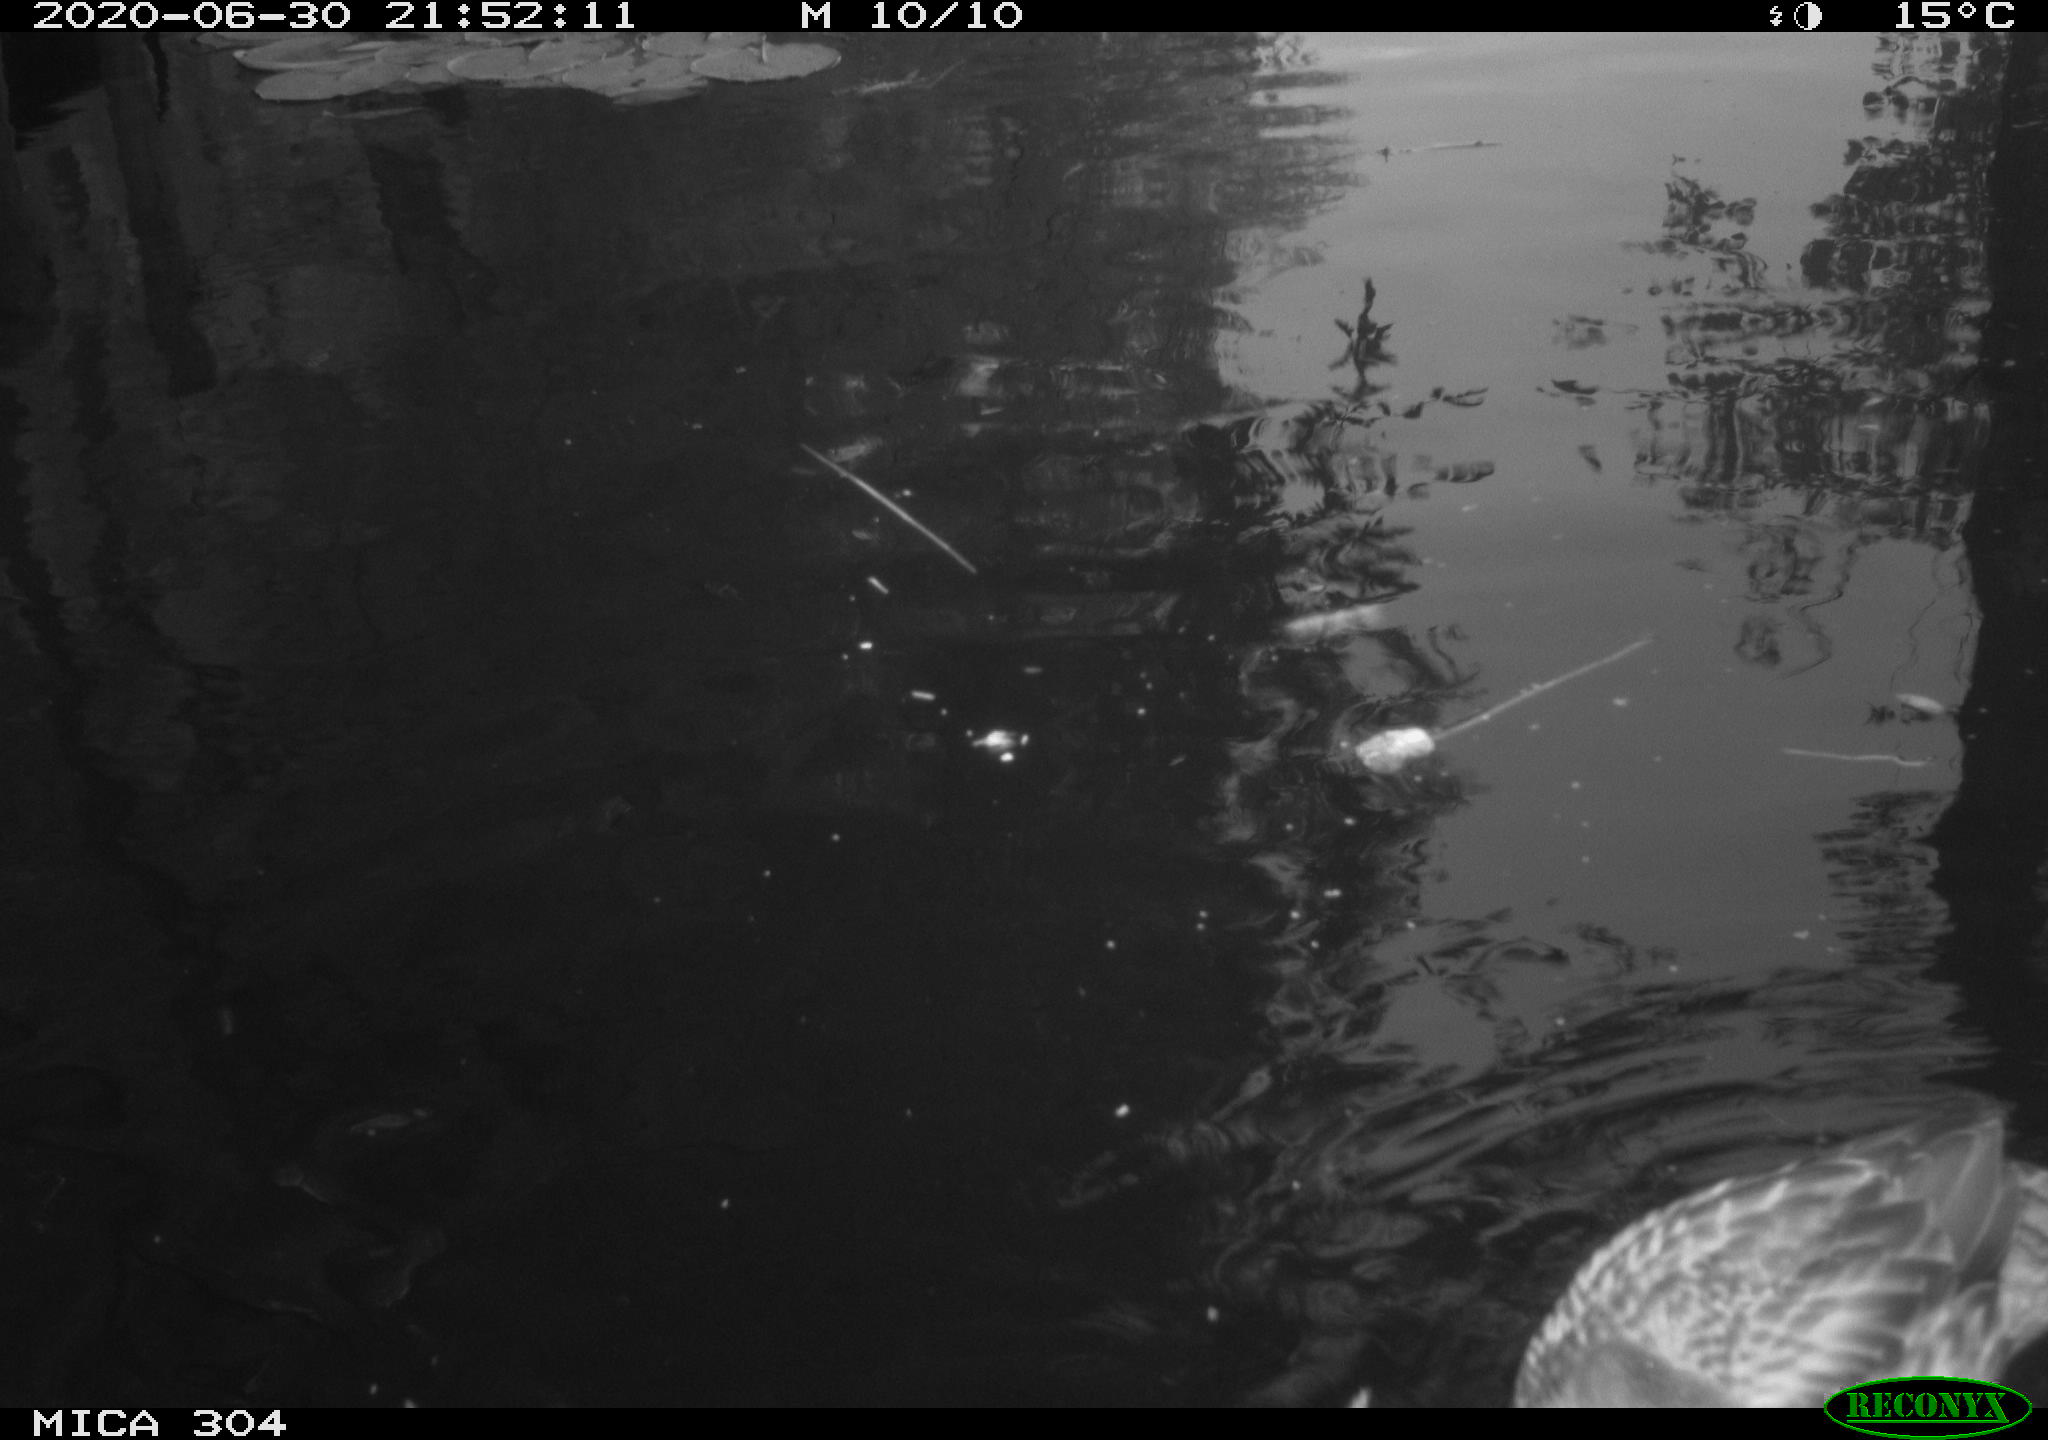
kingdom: Animalia
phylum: Chordata
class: Aves
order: Anseriformes
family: Anatidae
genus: Anas
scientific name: Anas platyrhynchos
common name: Mallard
